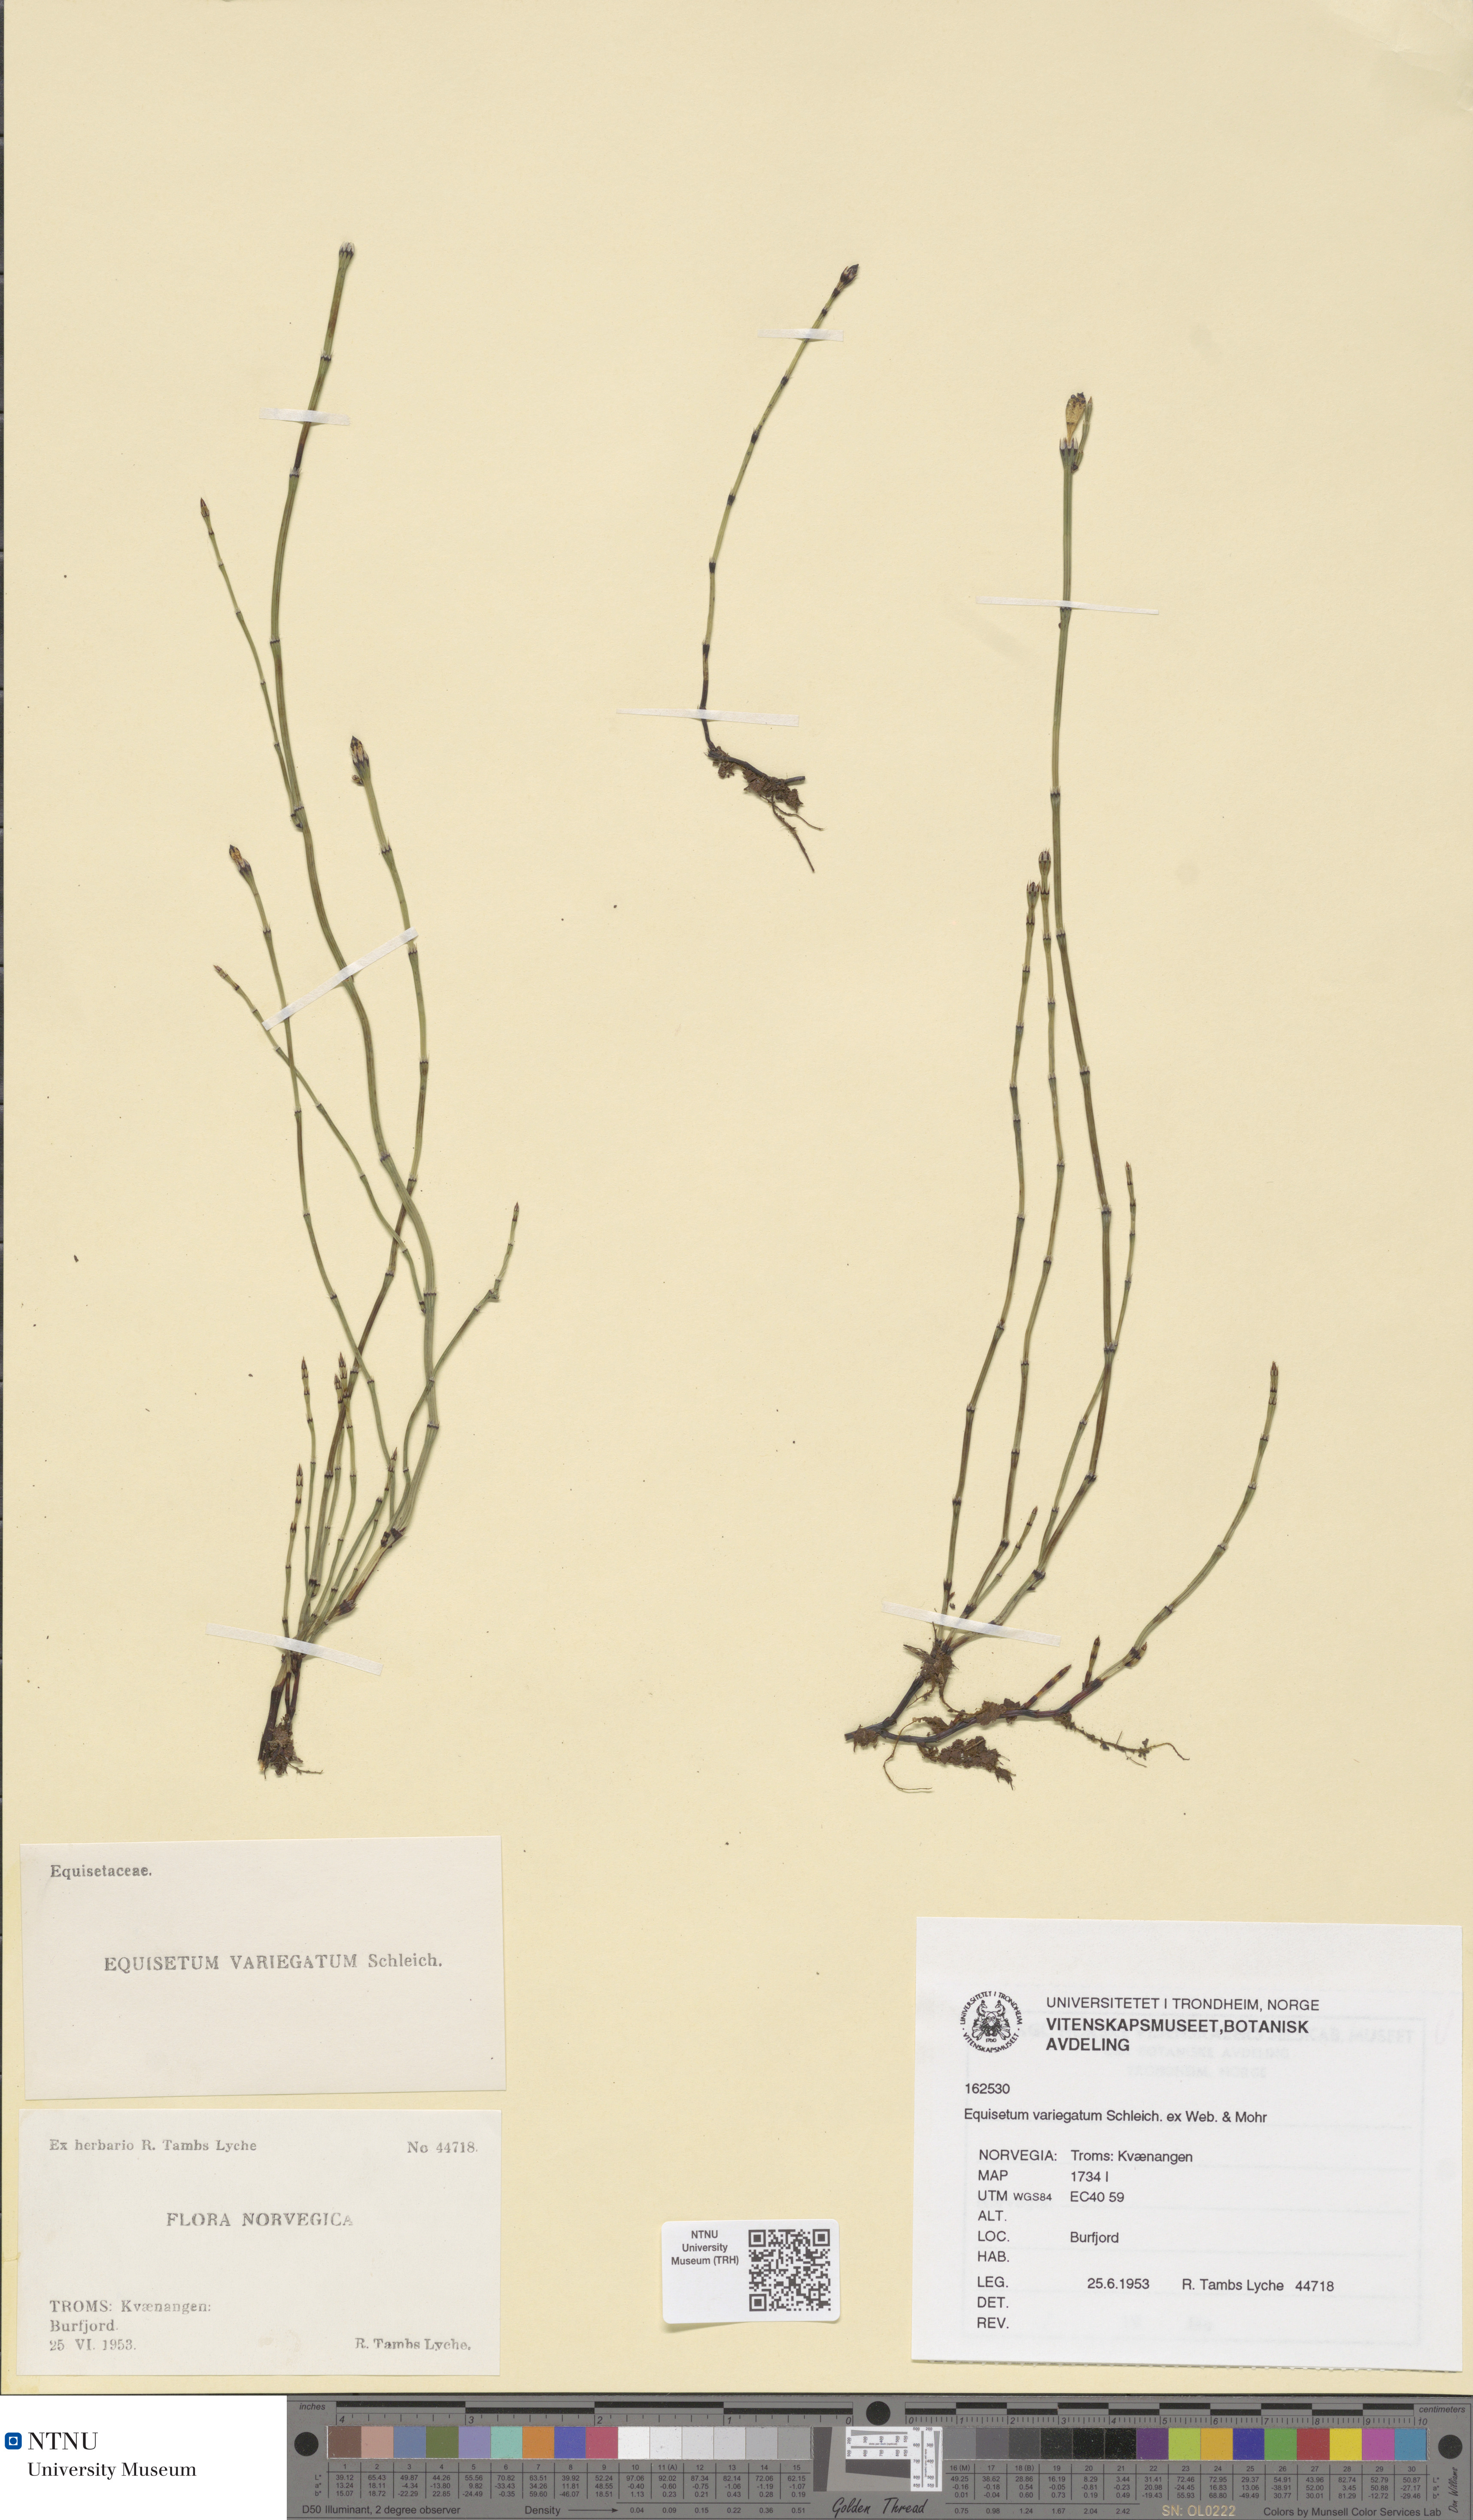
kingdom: Plantae
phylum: Tracheophyta
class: Polypodiopsida
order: Equisetales
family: Equisetaceae
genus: Equisetum
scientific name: Equisetum variegatum
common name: Variegated horsetail
